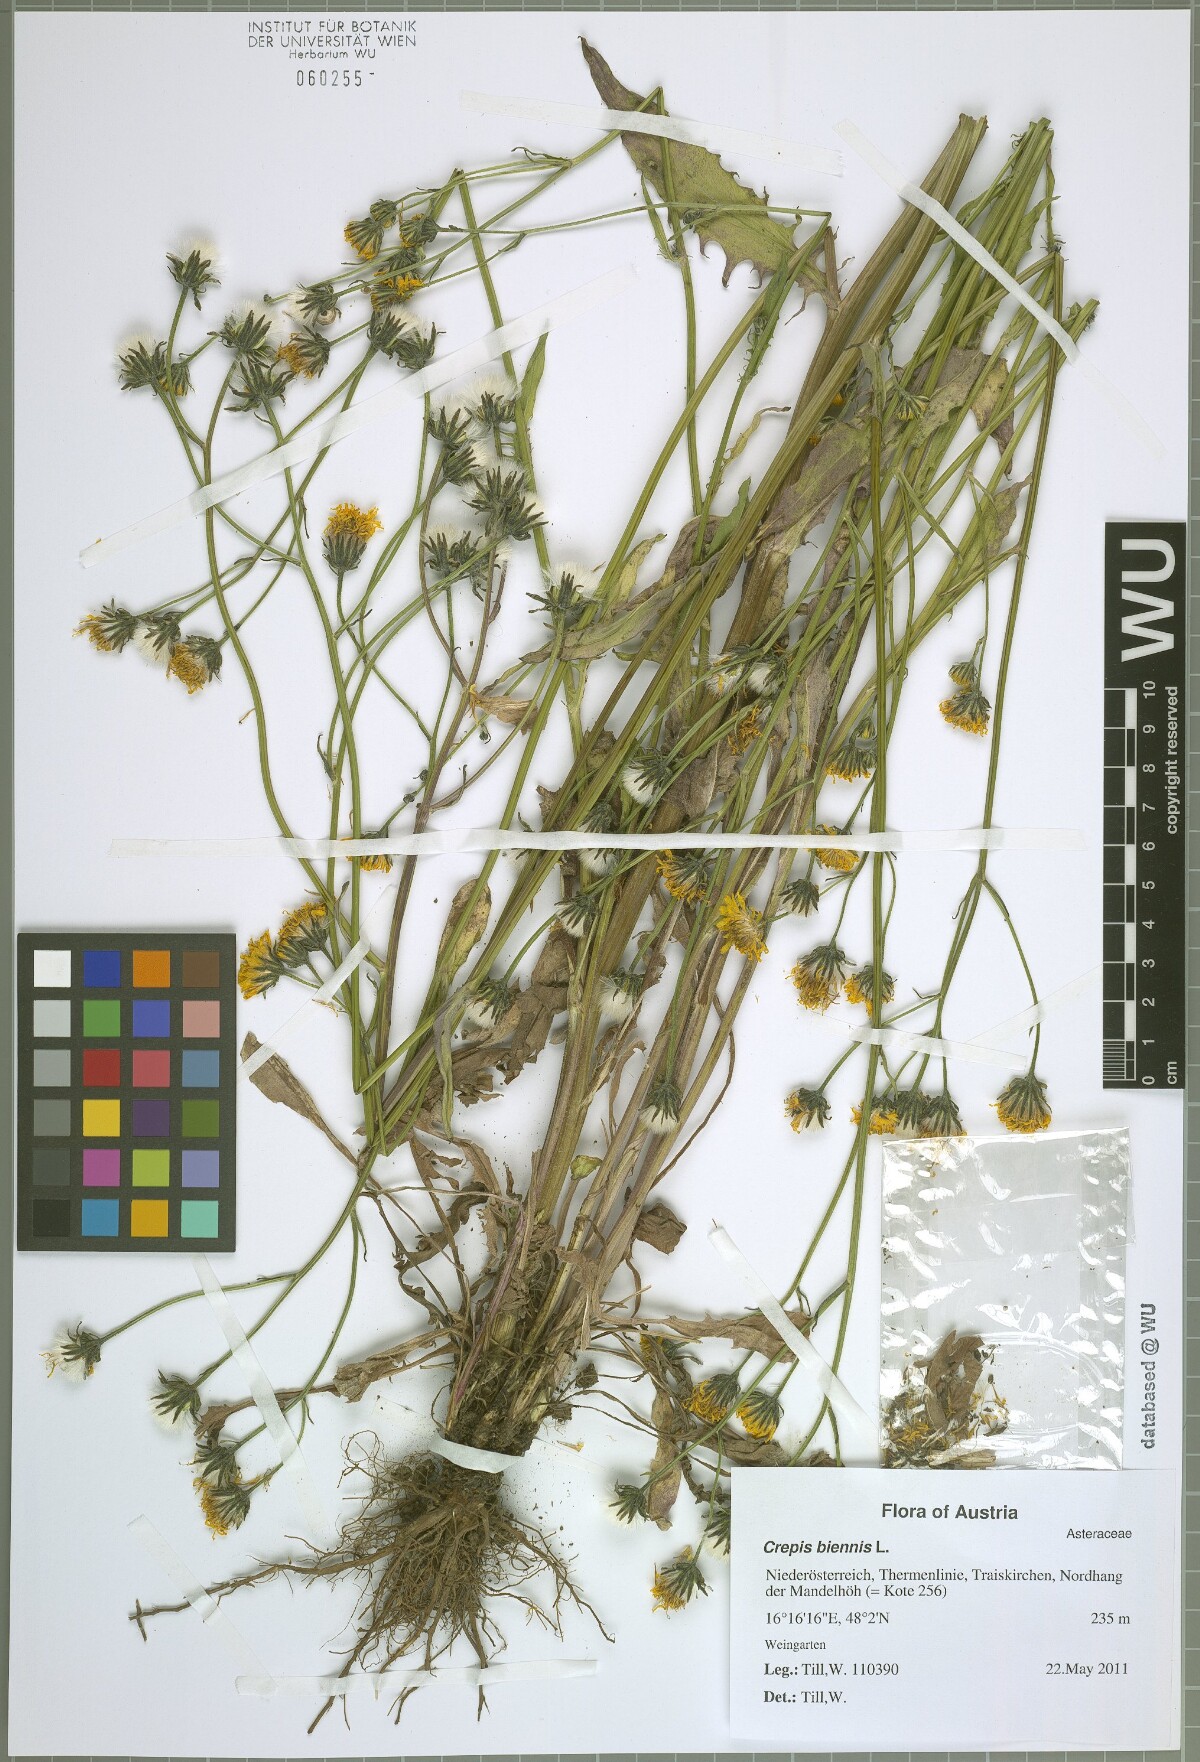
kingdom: Plantae
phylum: Tracheophyta
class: Magnoliopsida
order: Asterales
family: Asteraceae
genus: Crepis
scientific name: Crepis biennis
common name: Rough hawk's-beard
